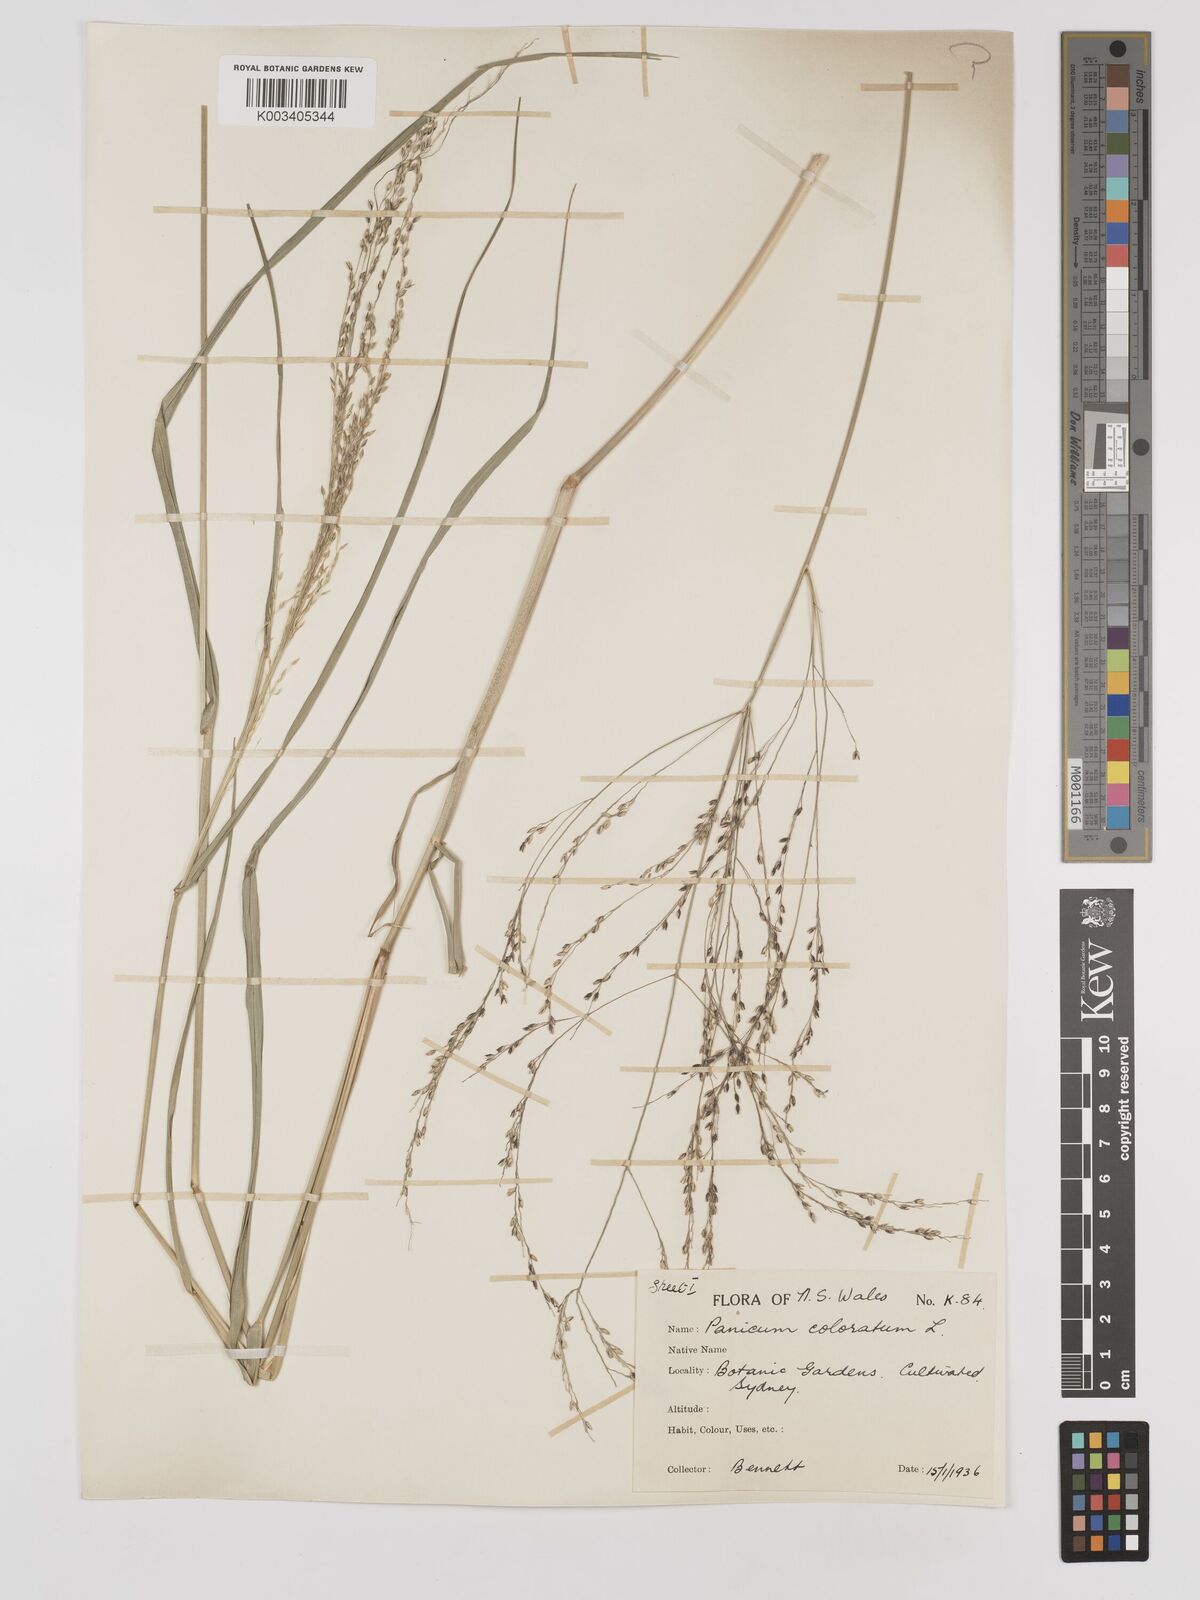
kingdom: Plantae
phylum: Tracheophyta
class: Liliopsida
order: Poales
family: Poaceae
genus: Panicum
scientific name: Panicum coloratum
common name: Kleingrass
